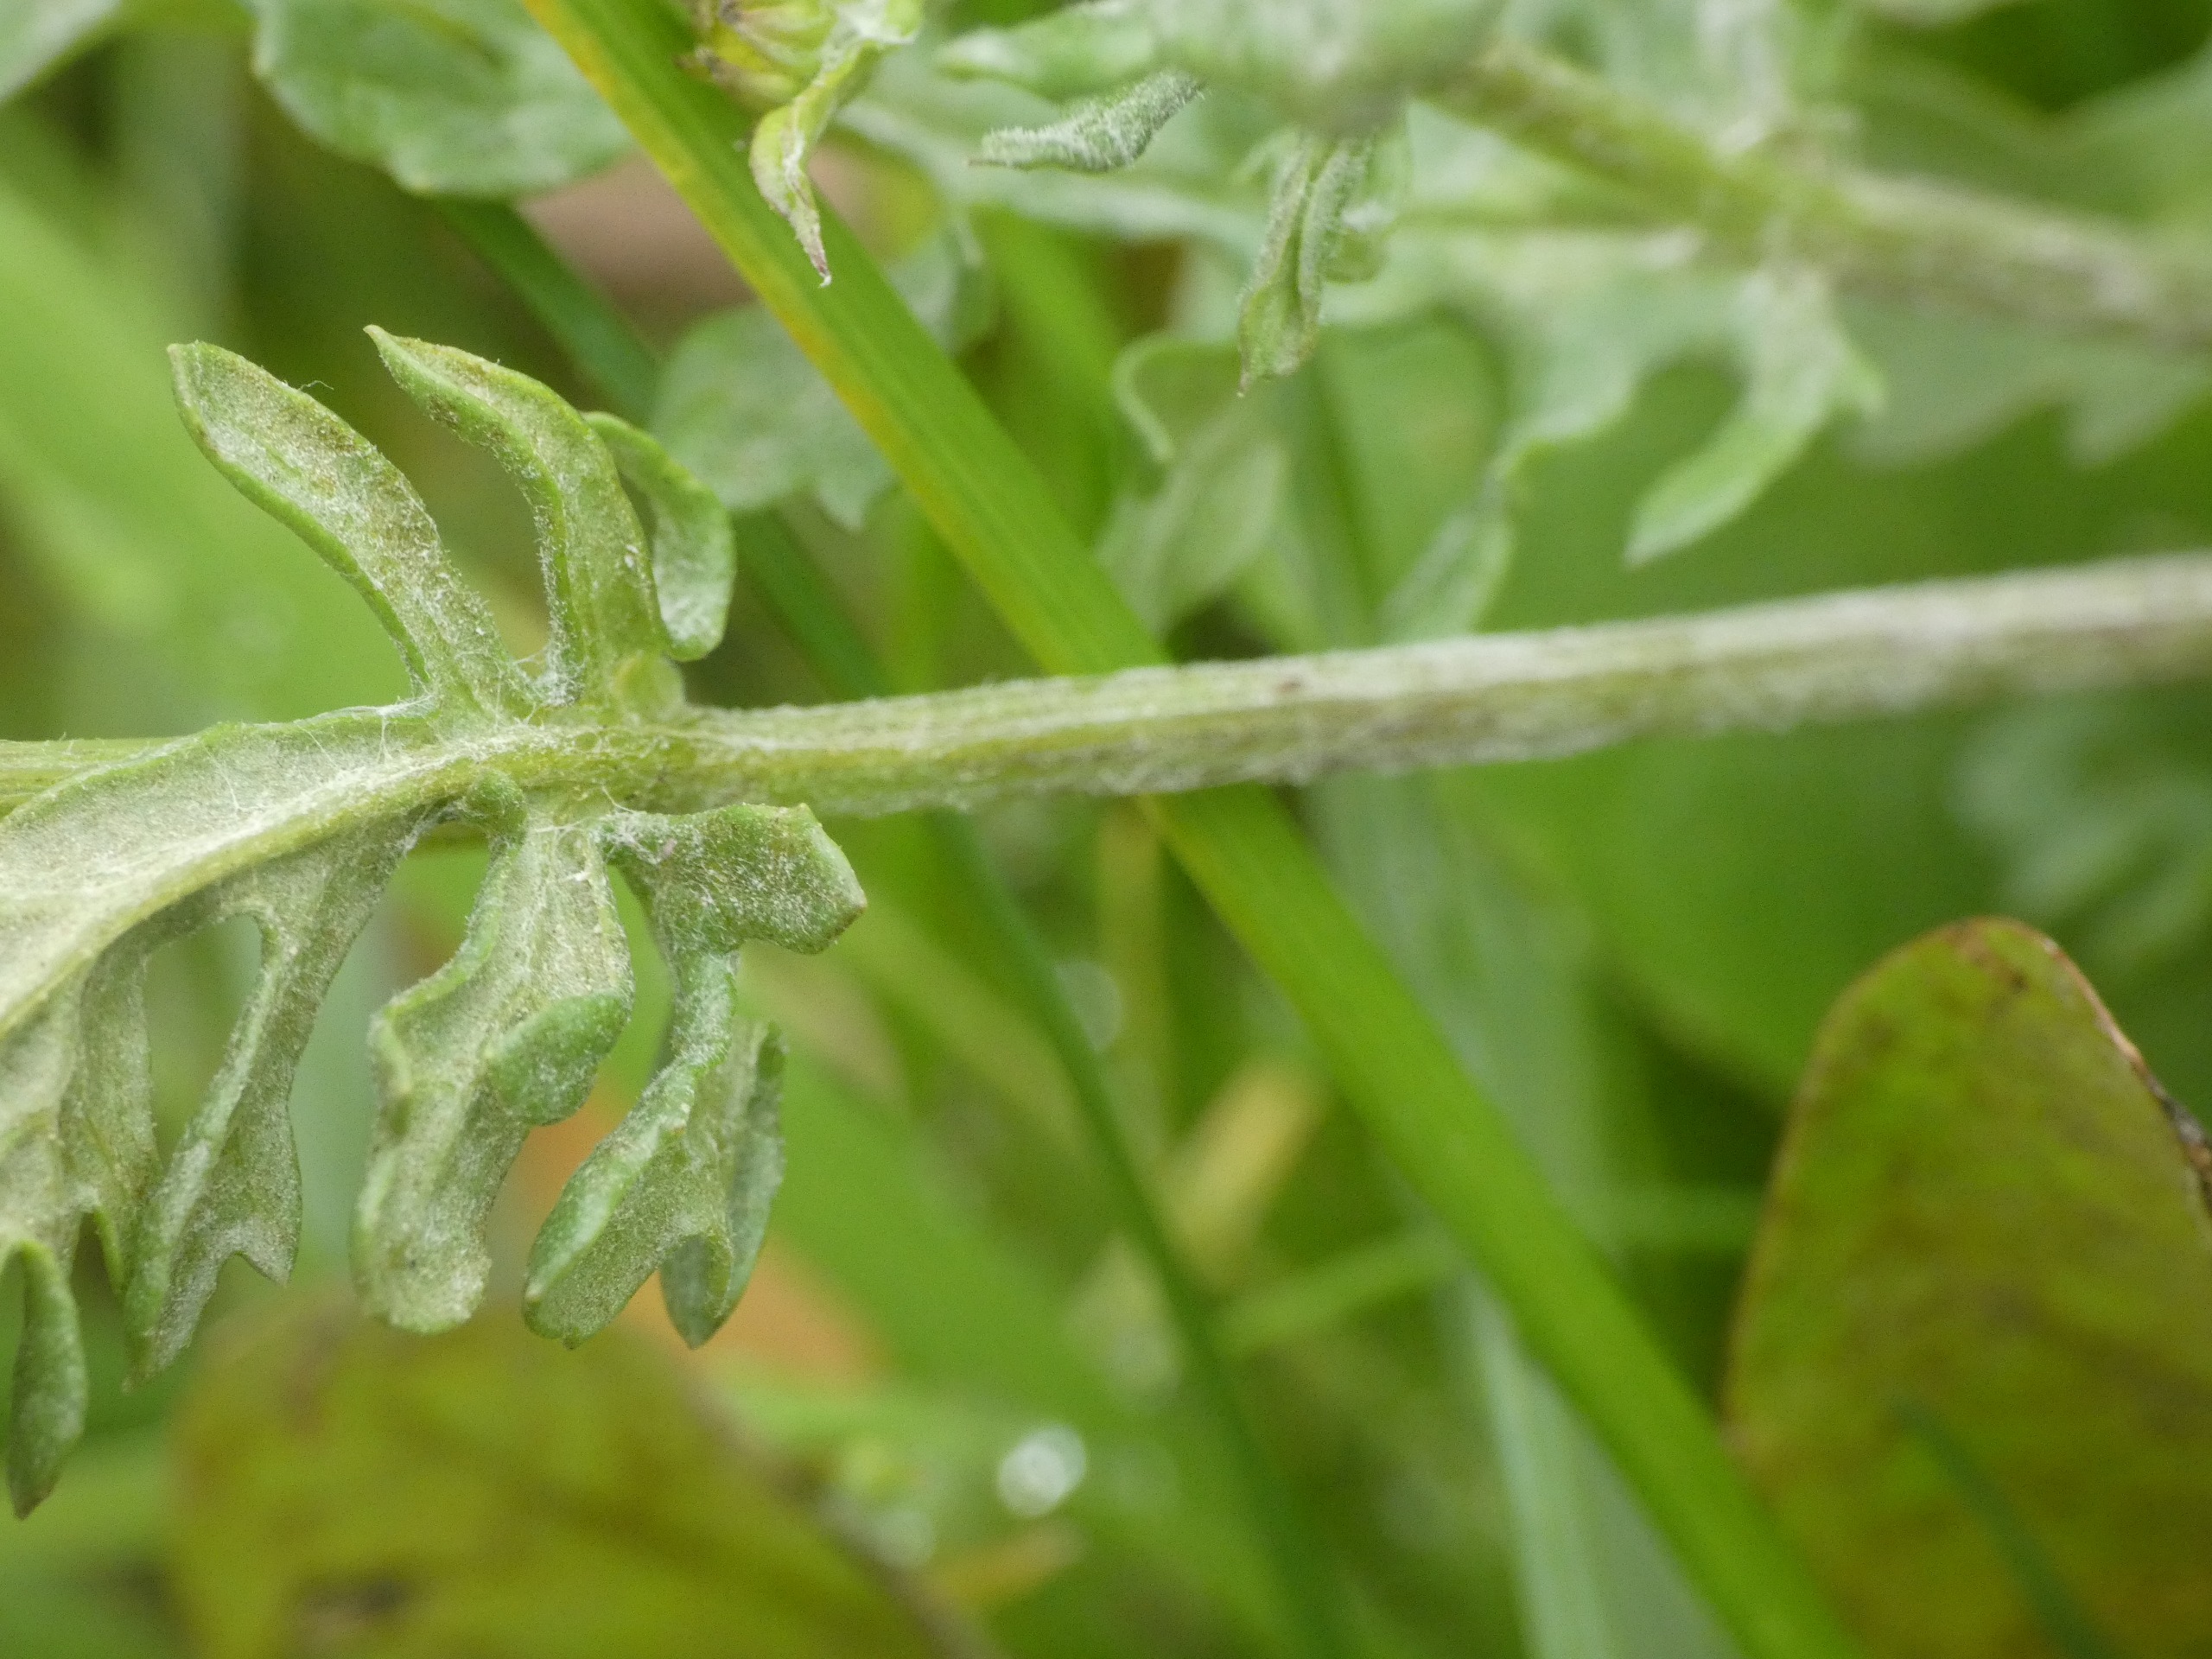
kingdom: Plantae
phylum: Tracheophyta
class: Magnoliopsida
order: Asterales
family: Asteraceae
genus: Jacobaea
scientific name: Jacobaea vulgaris
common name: Eng-brandbæger
